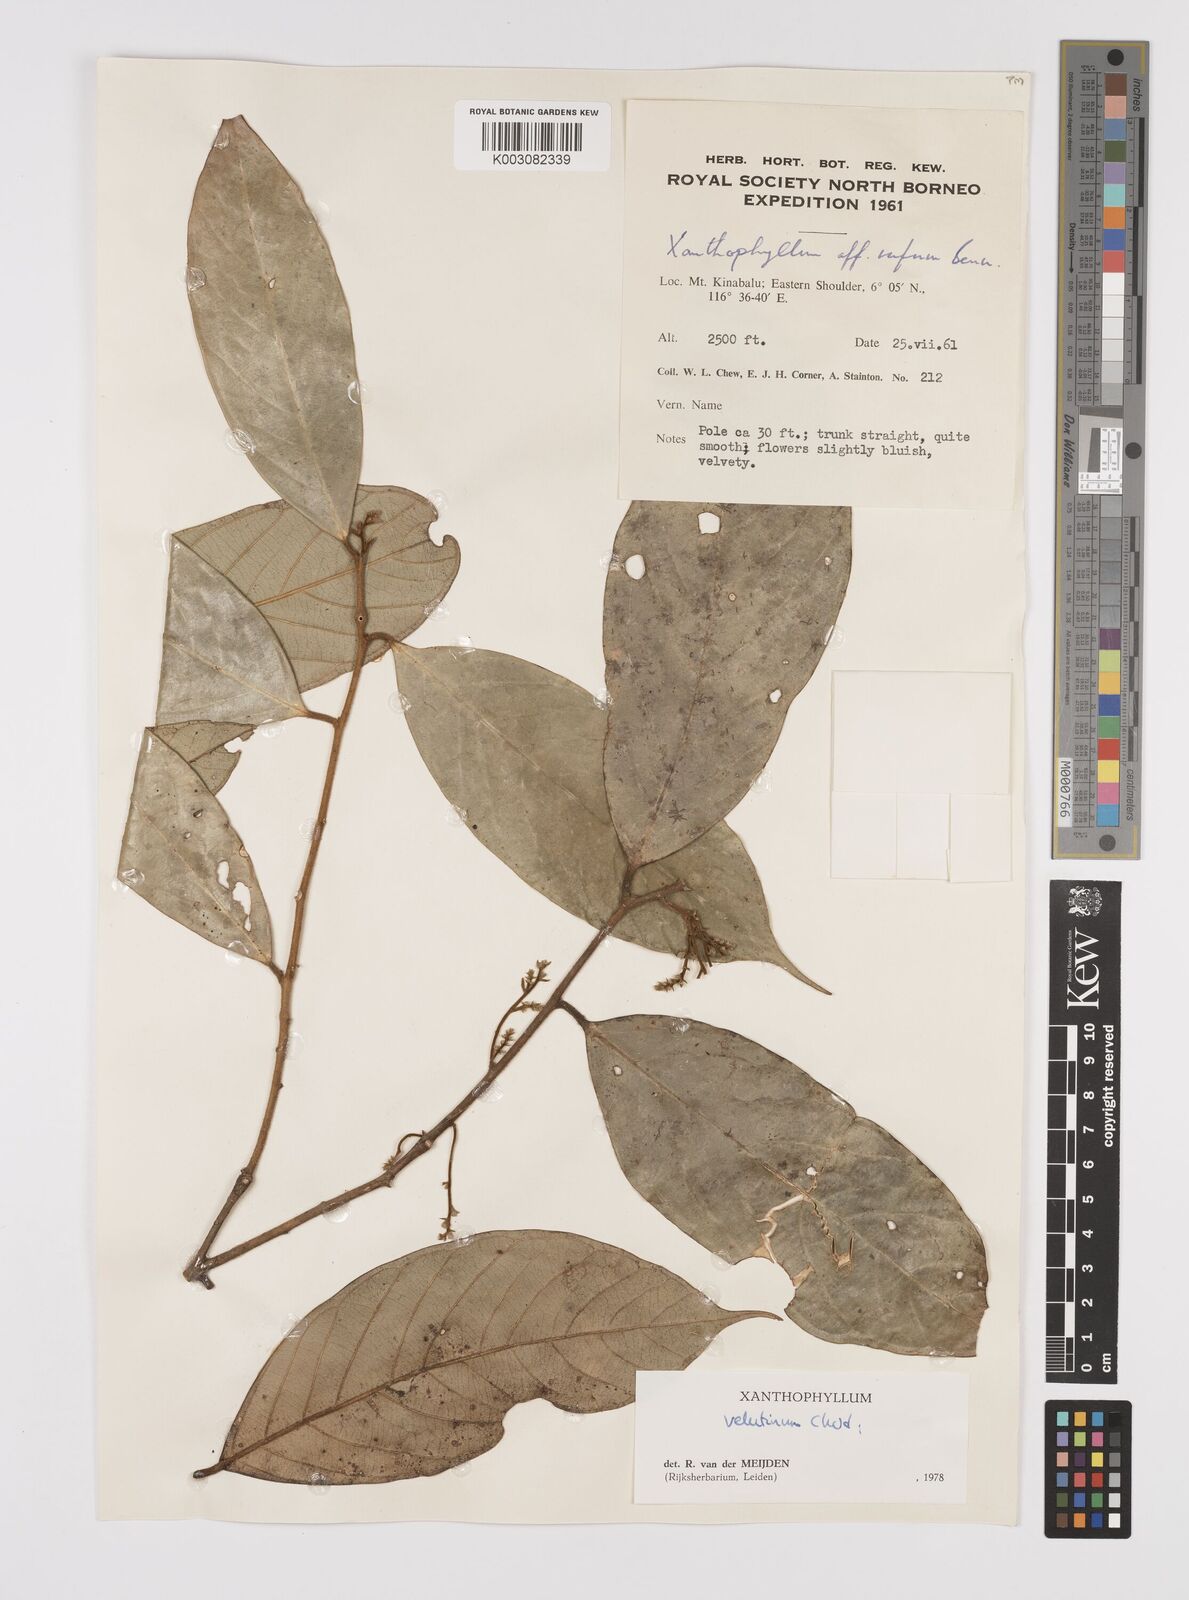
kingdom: Plantae
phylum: Tracheophyta
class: Magnoliopsida
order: Fabales
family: Polygalaceae
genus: Xanthophyllum
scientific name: Xanthophyllum velutinum
